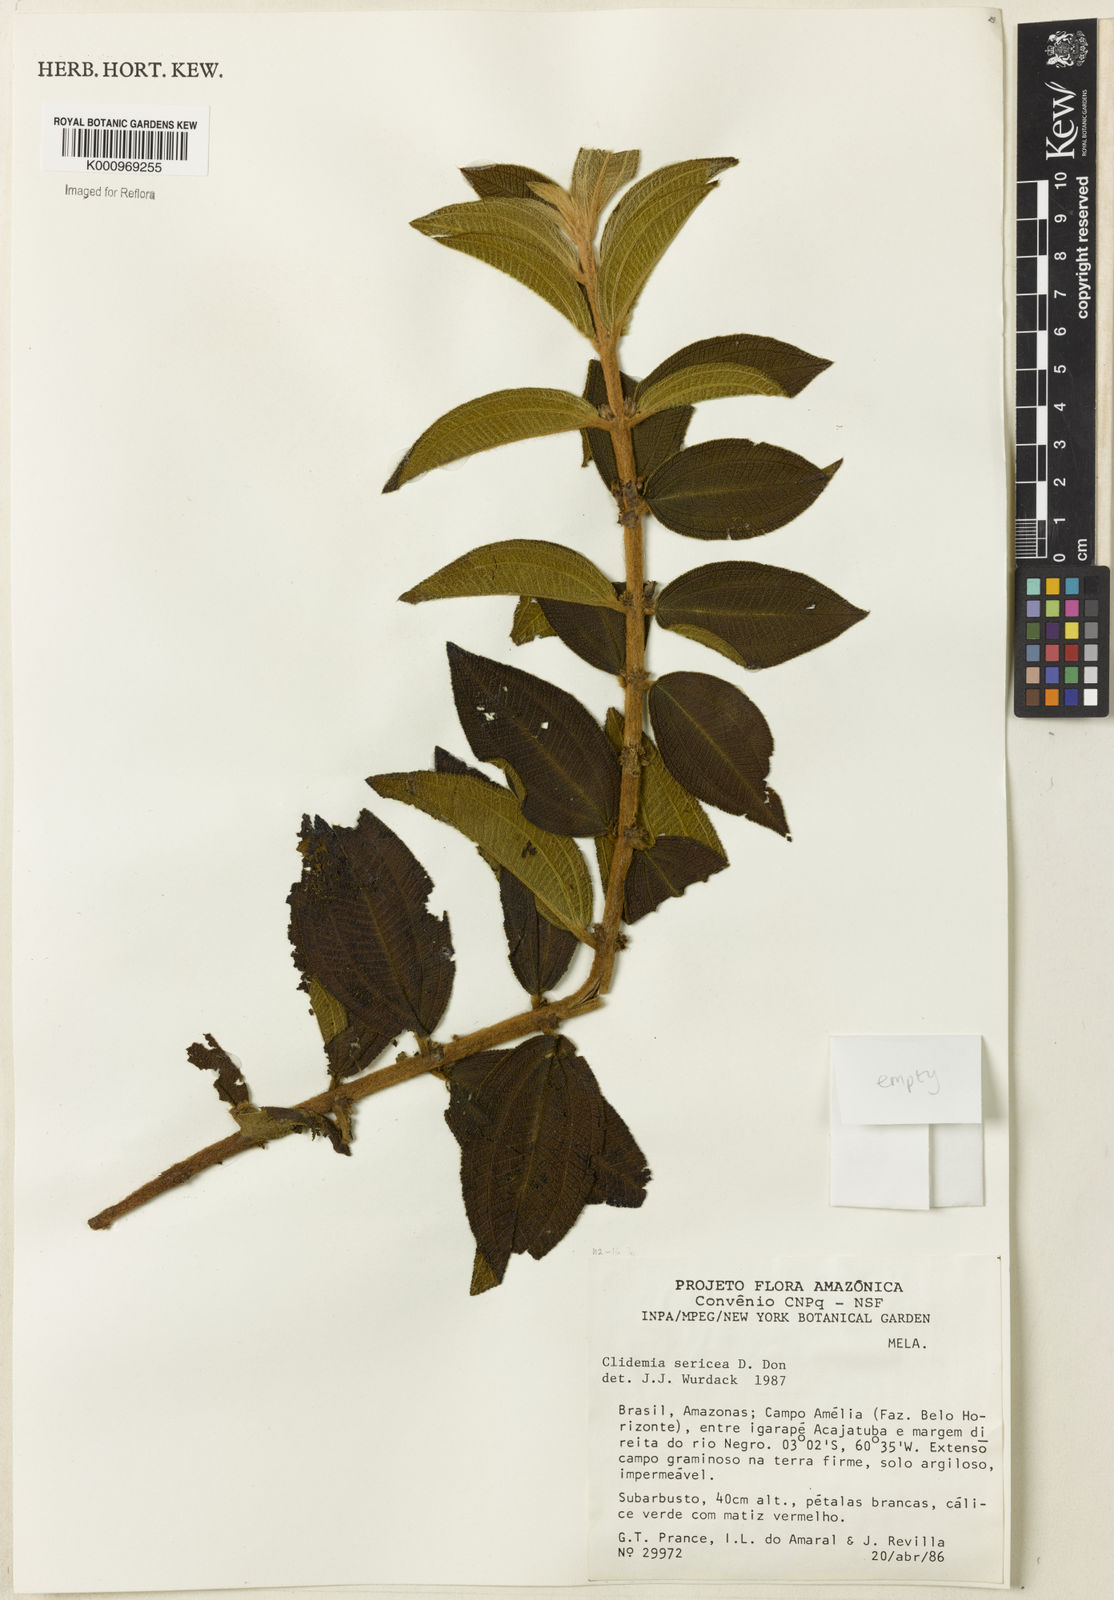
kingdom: Plantae
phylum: Tracheophyta
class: Magnoliopsida
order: Myrtales
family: Melastomataceae
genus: Miconia
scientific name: Miconia sericea
